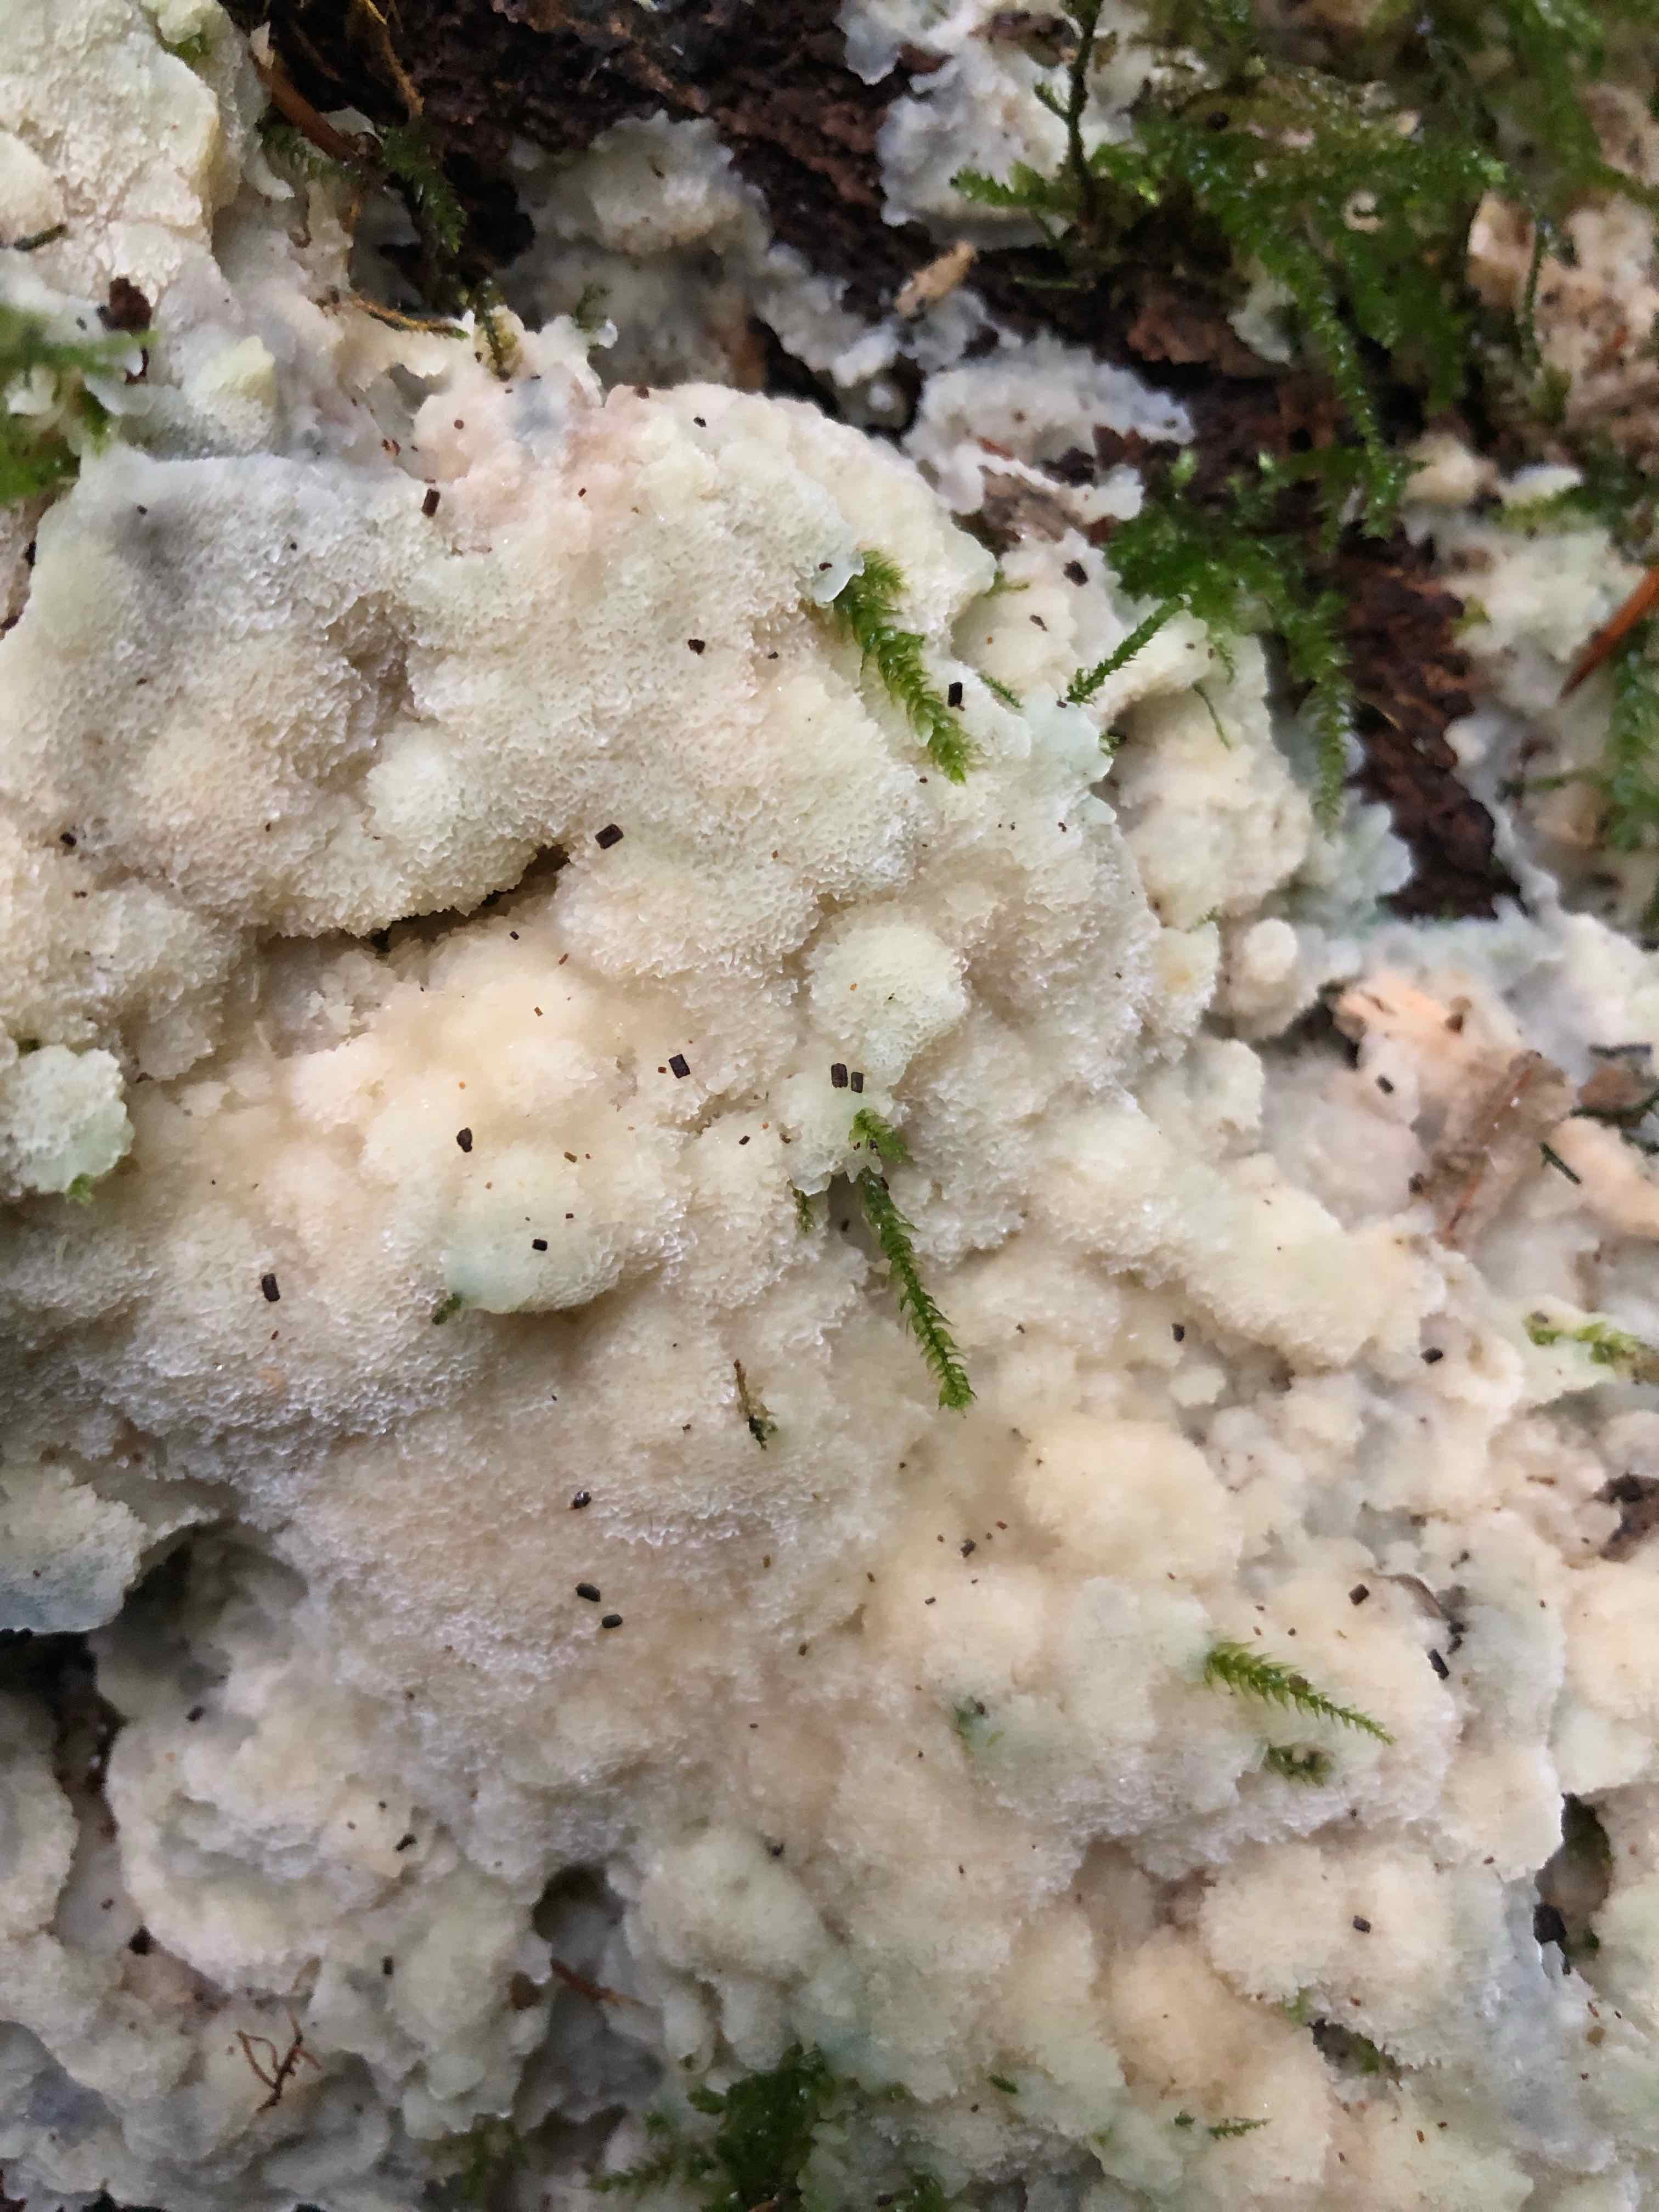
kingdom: Fungi
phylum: Basidiomycota
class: Agaricomycetes
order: Polyporales
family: Meruliaceae
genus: Physisporinus
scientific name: Physisporinus vitreus
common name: mastesvamp
